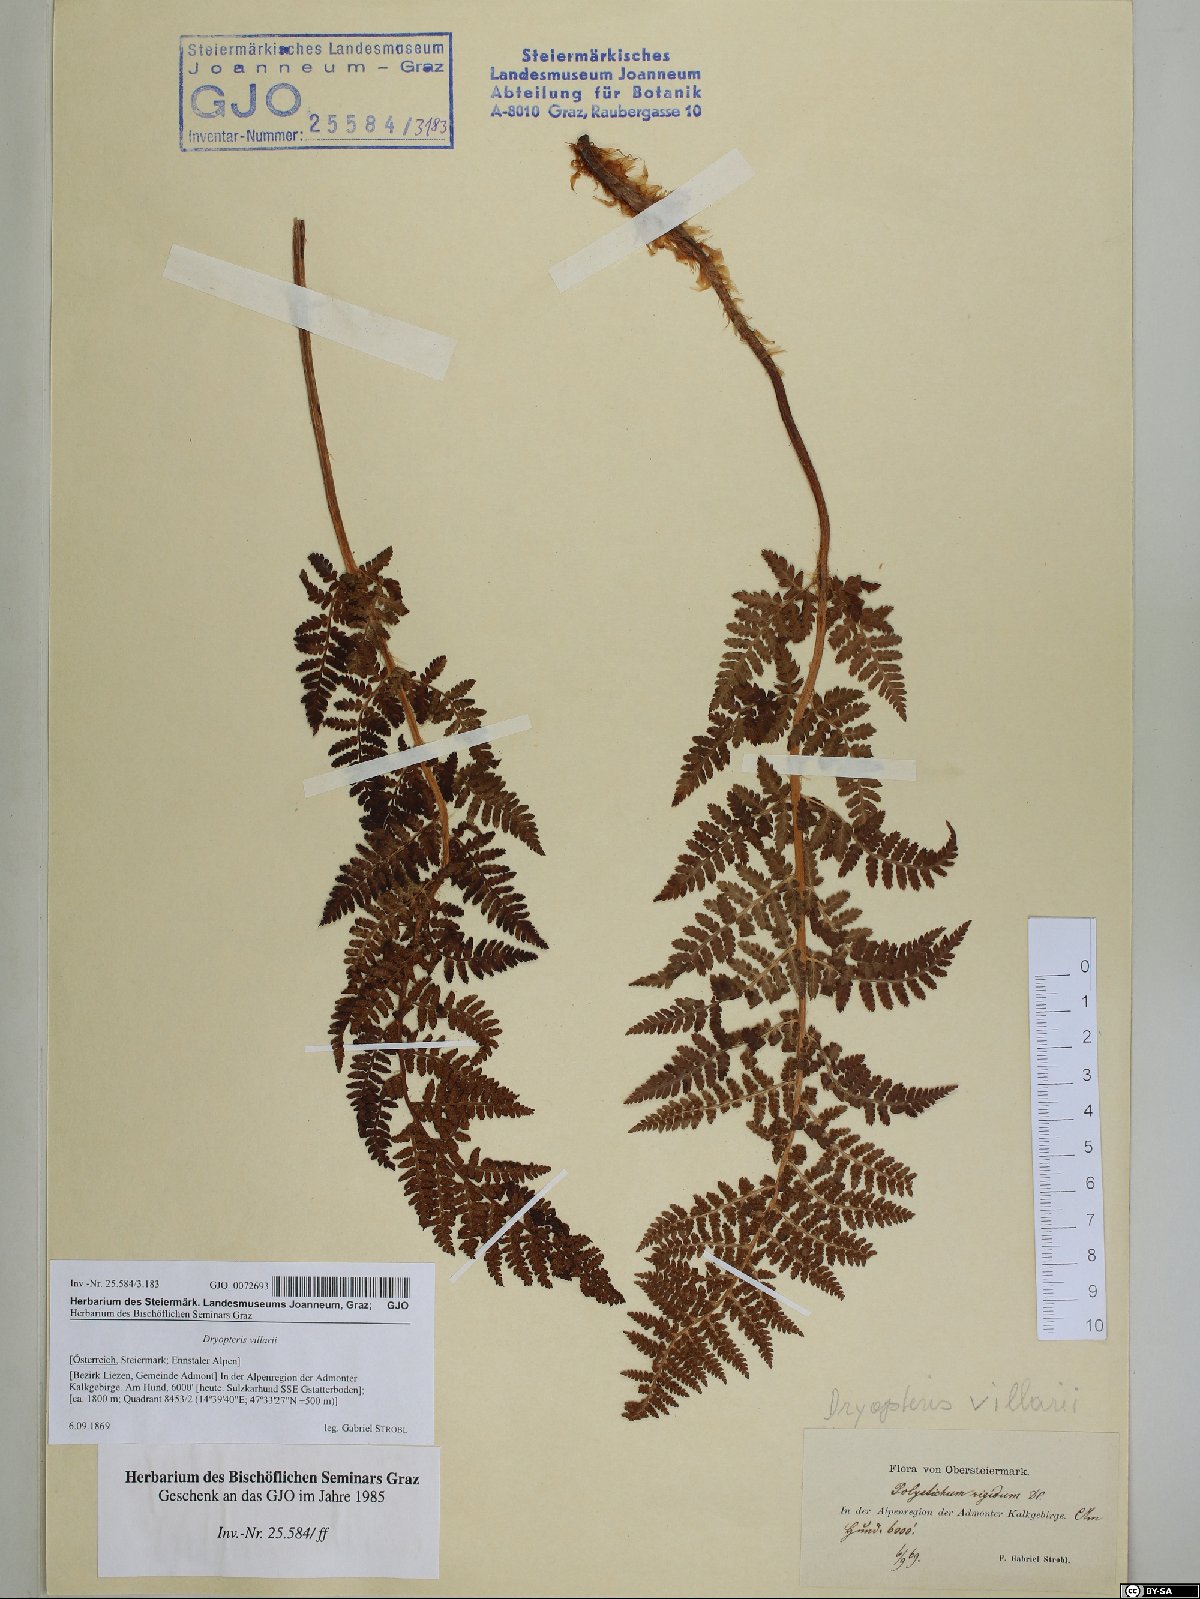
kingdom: Plantae
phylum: Tracheophyta
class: Polypodiopsida
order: Polypodiales
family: Dryopteridaceae
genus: Dryopteris
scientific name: Dryopteris villarii
